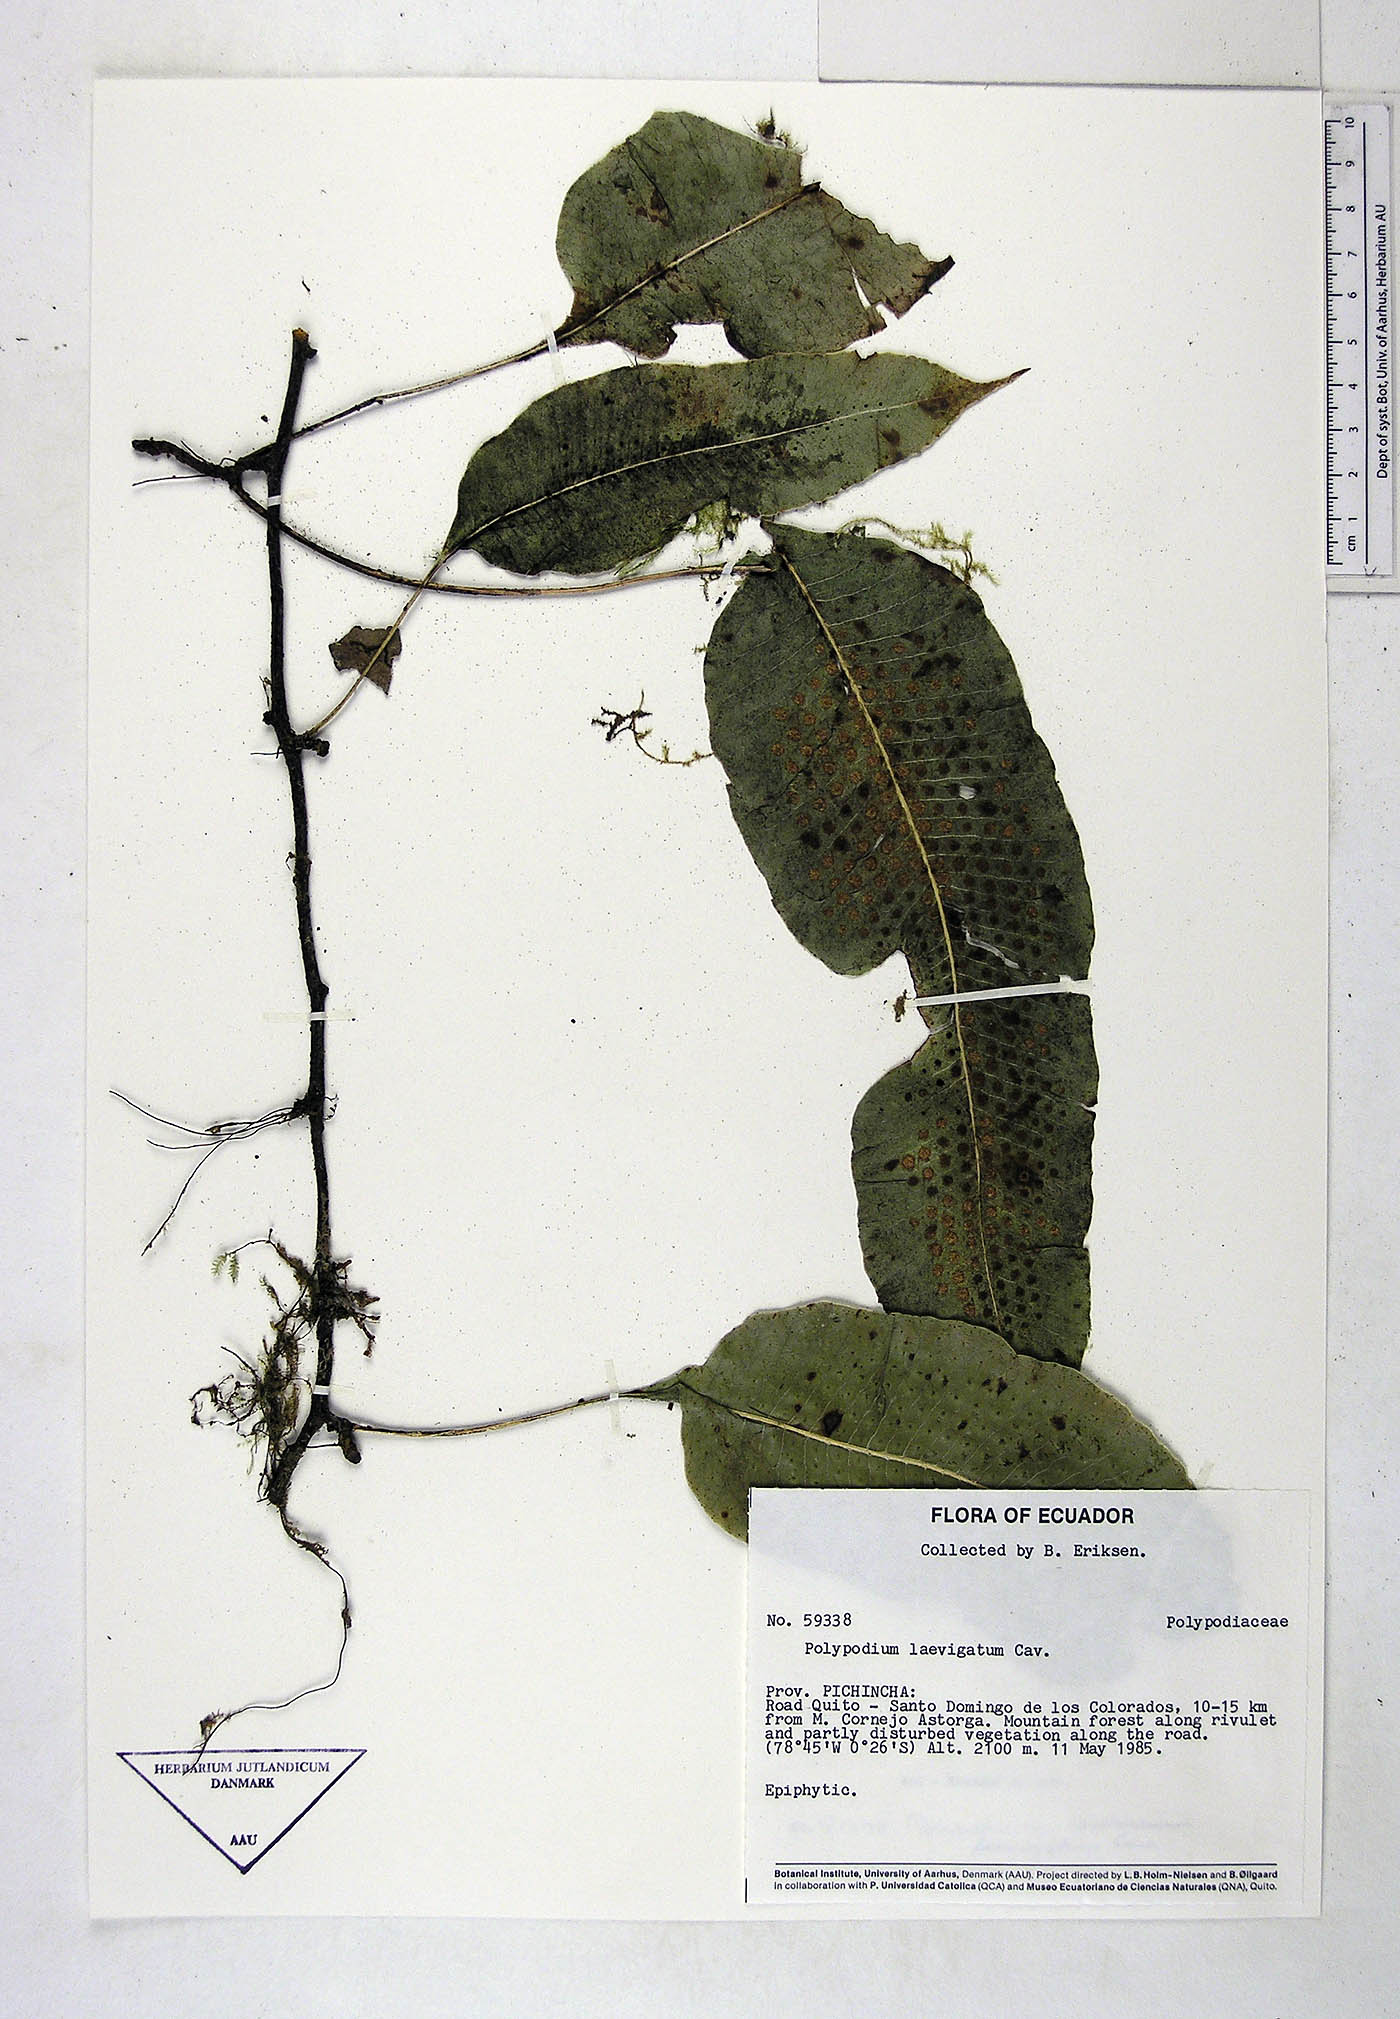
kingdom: Plantae
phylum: Tracheophyta
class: Polypodiopsida
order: Polypodiales
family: Polypodiaceae
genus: Serpocaulon
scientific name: Serpocaulon laevigatum
